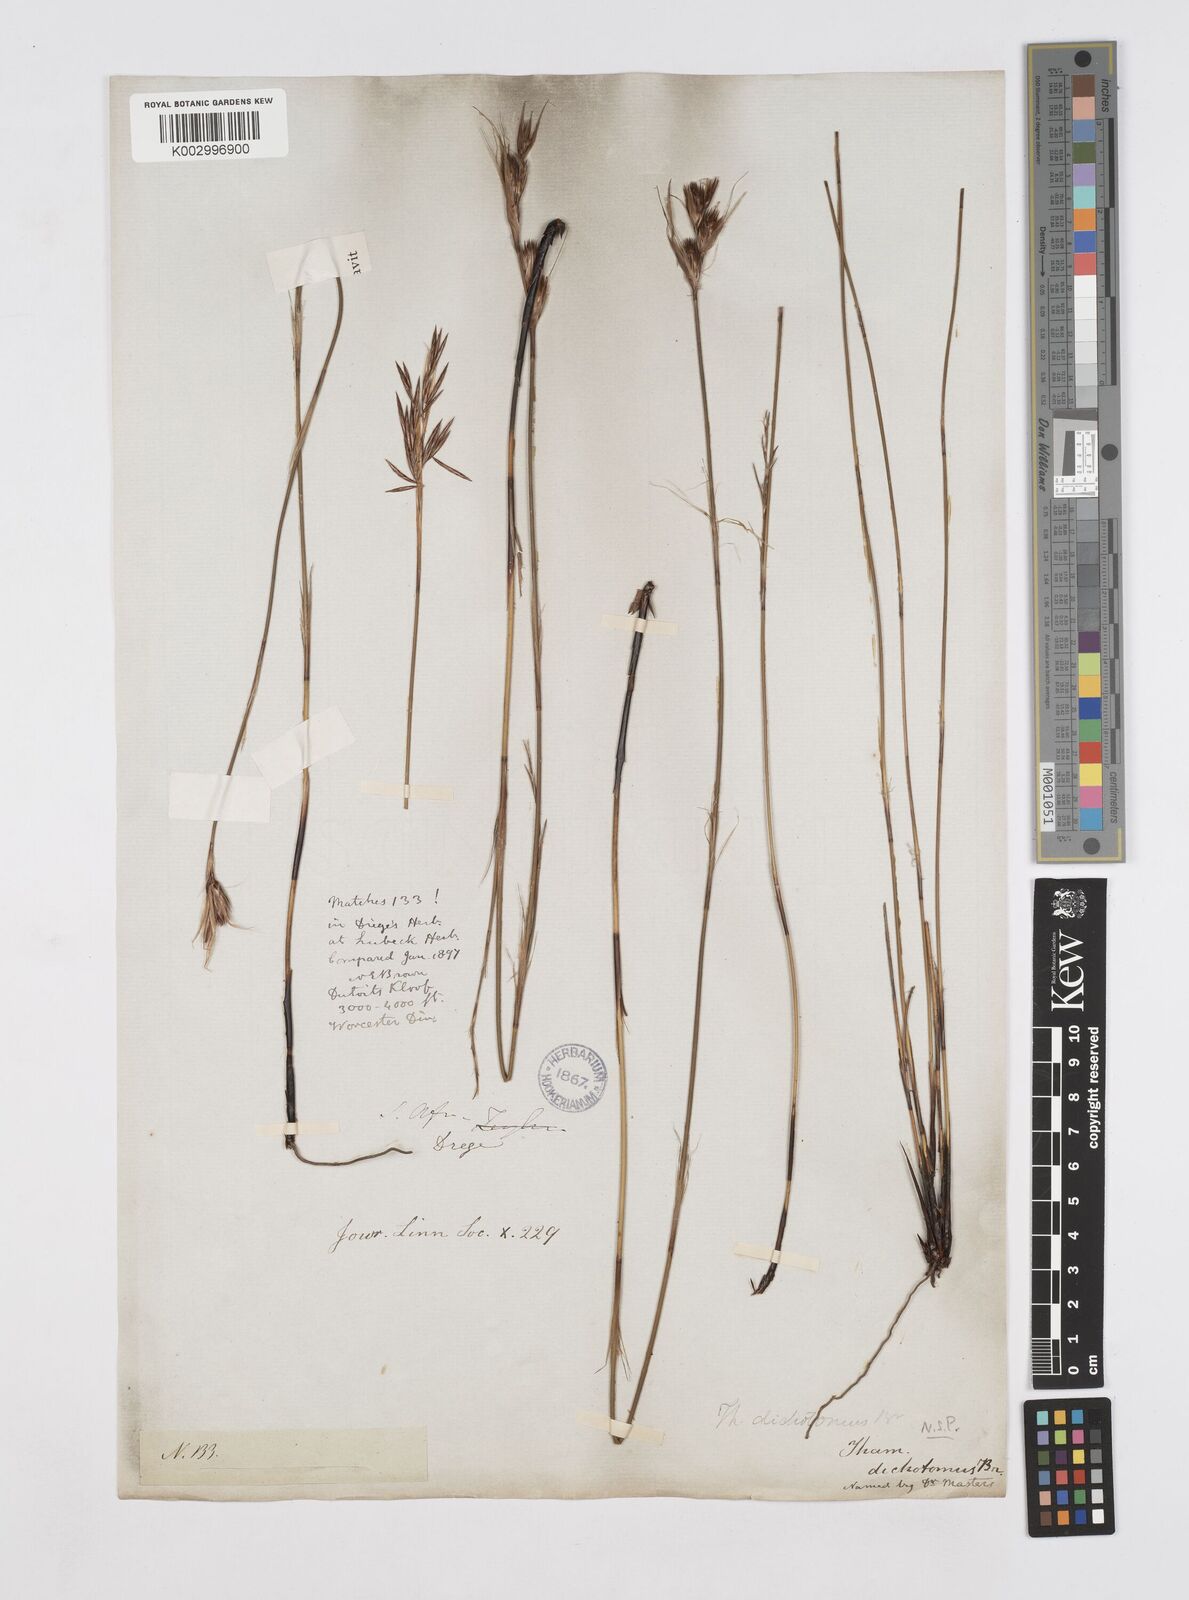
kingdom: Plantae
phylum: Tracheophyta
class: Liliopsida
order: Poales
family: Restionaceae
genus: Thamnochortus
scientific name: Thamnochortus lucens
